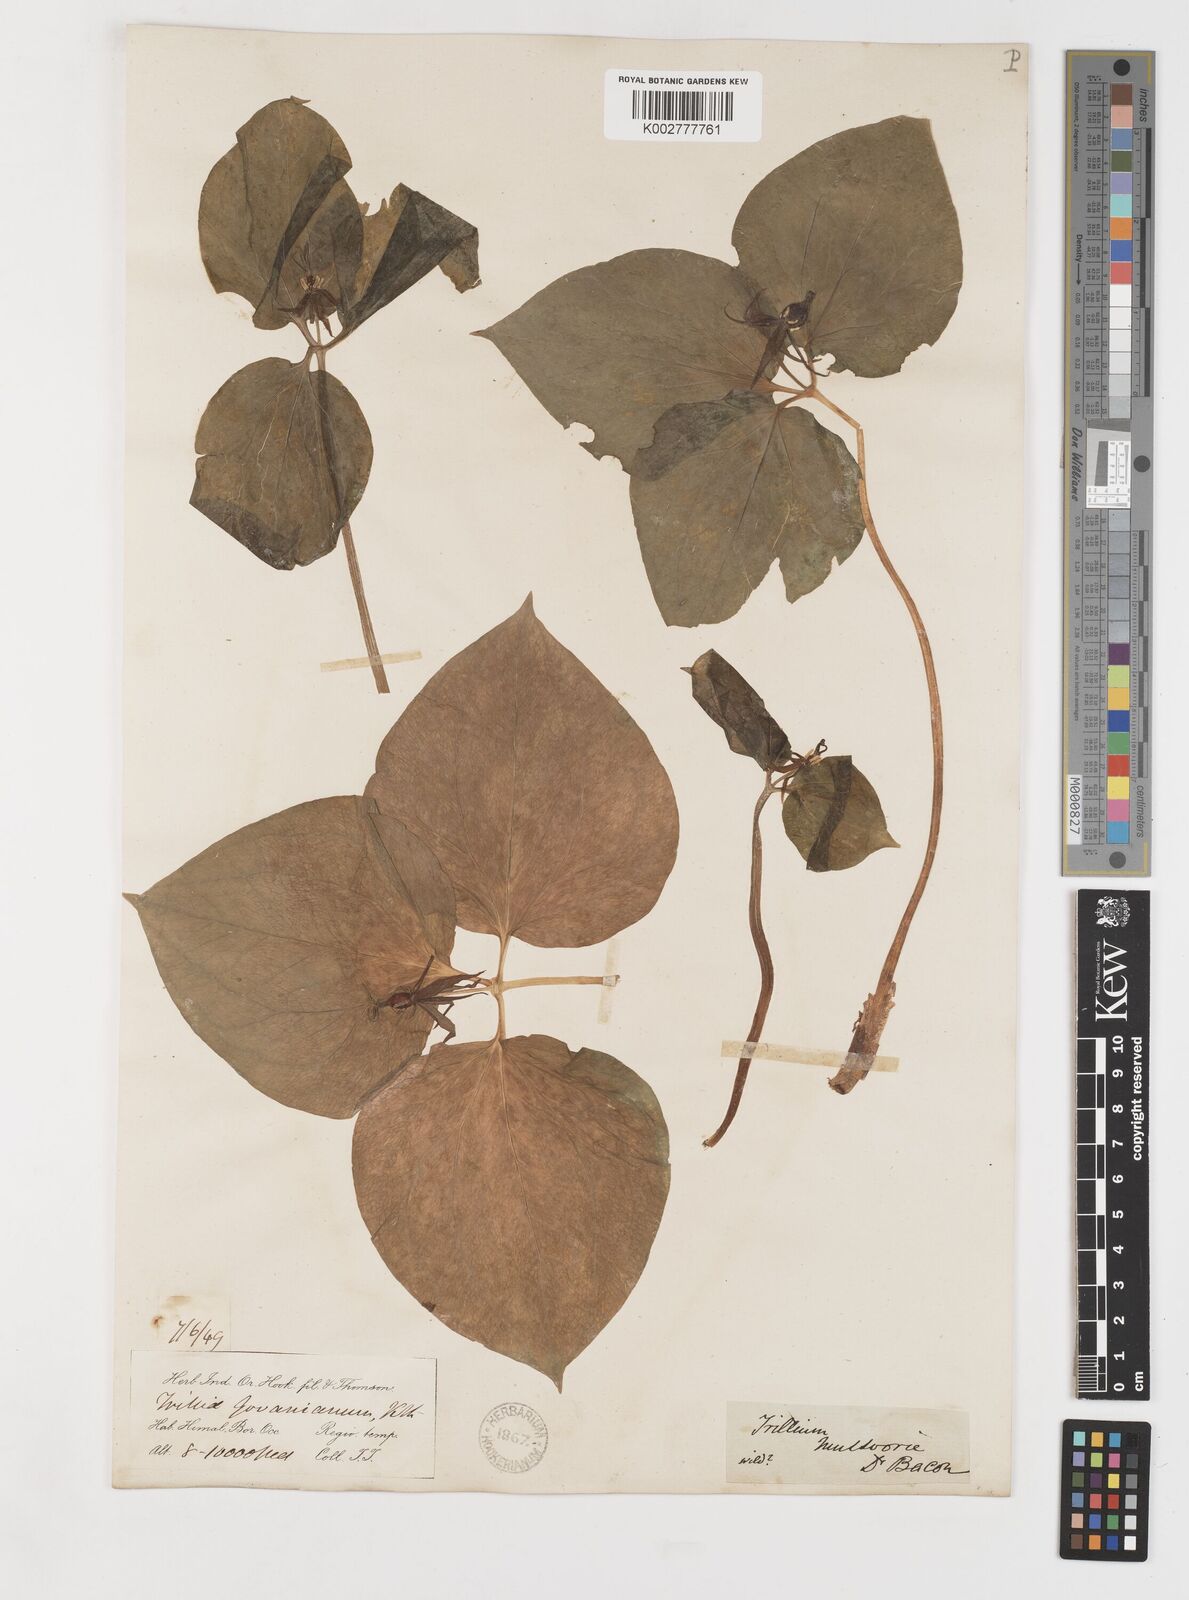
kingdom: Plantae
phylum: Tracheophyta
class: Liliopsida
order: Liliales
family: Melanthiaceae
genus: Trillium
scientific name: Trillium govanianum
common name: Himalayan trillium
